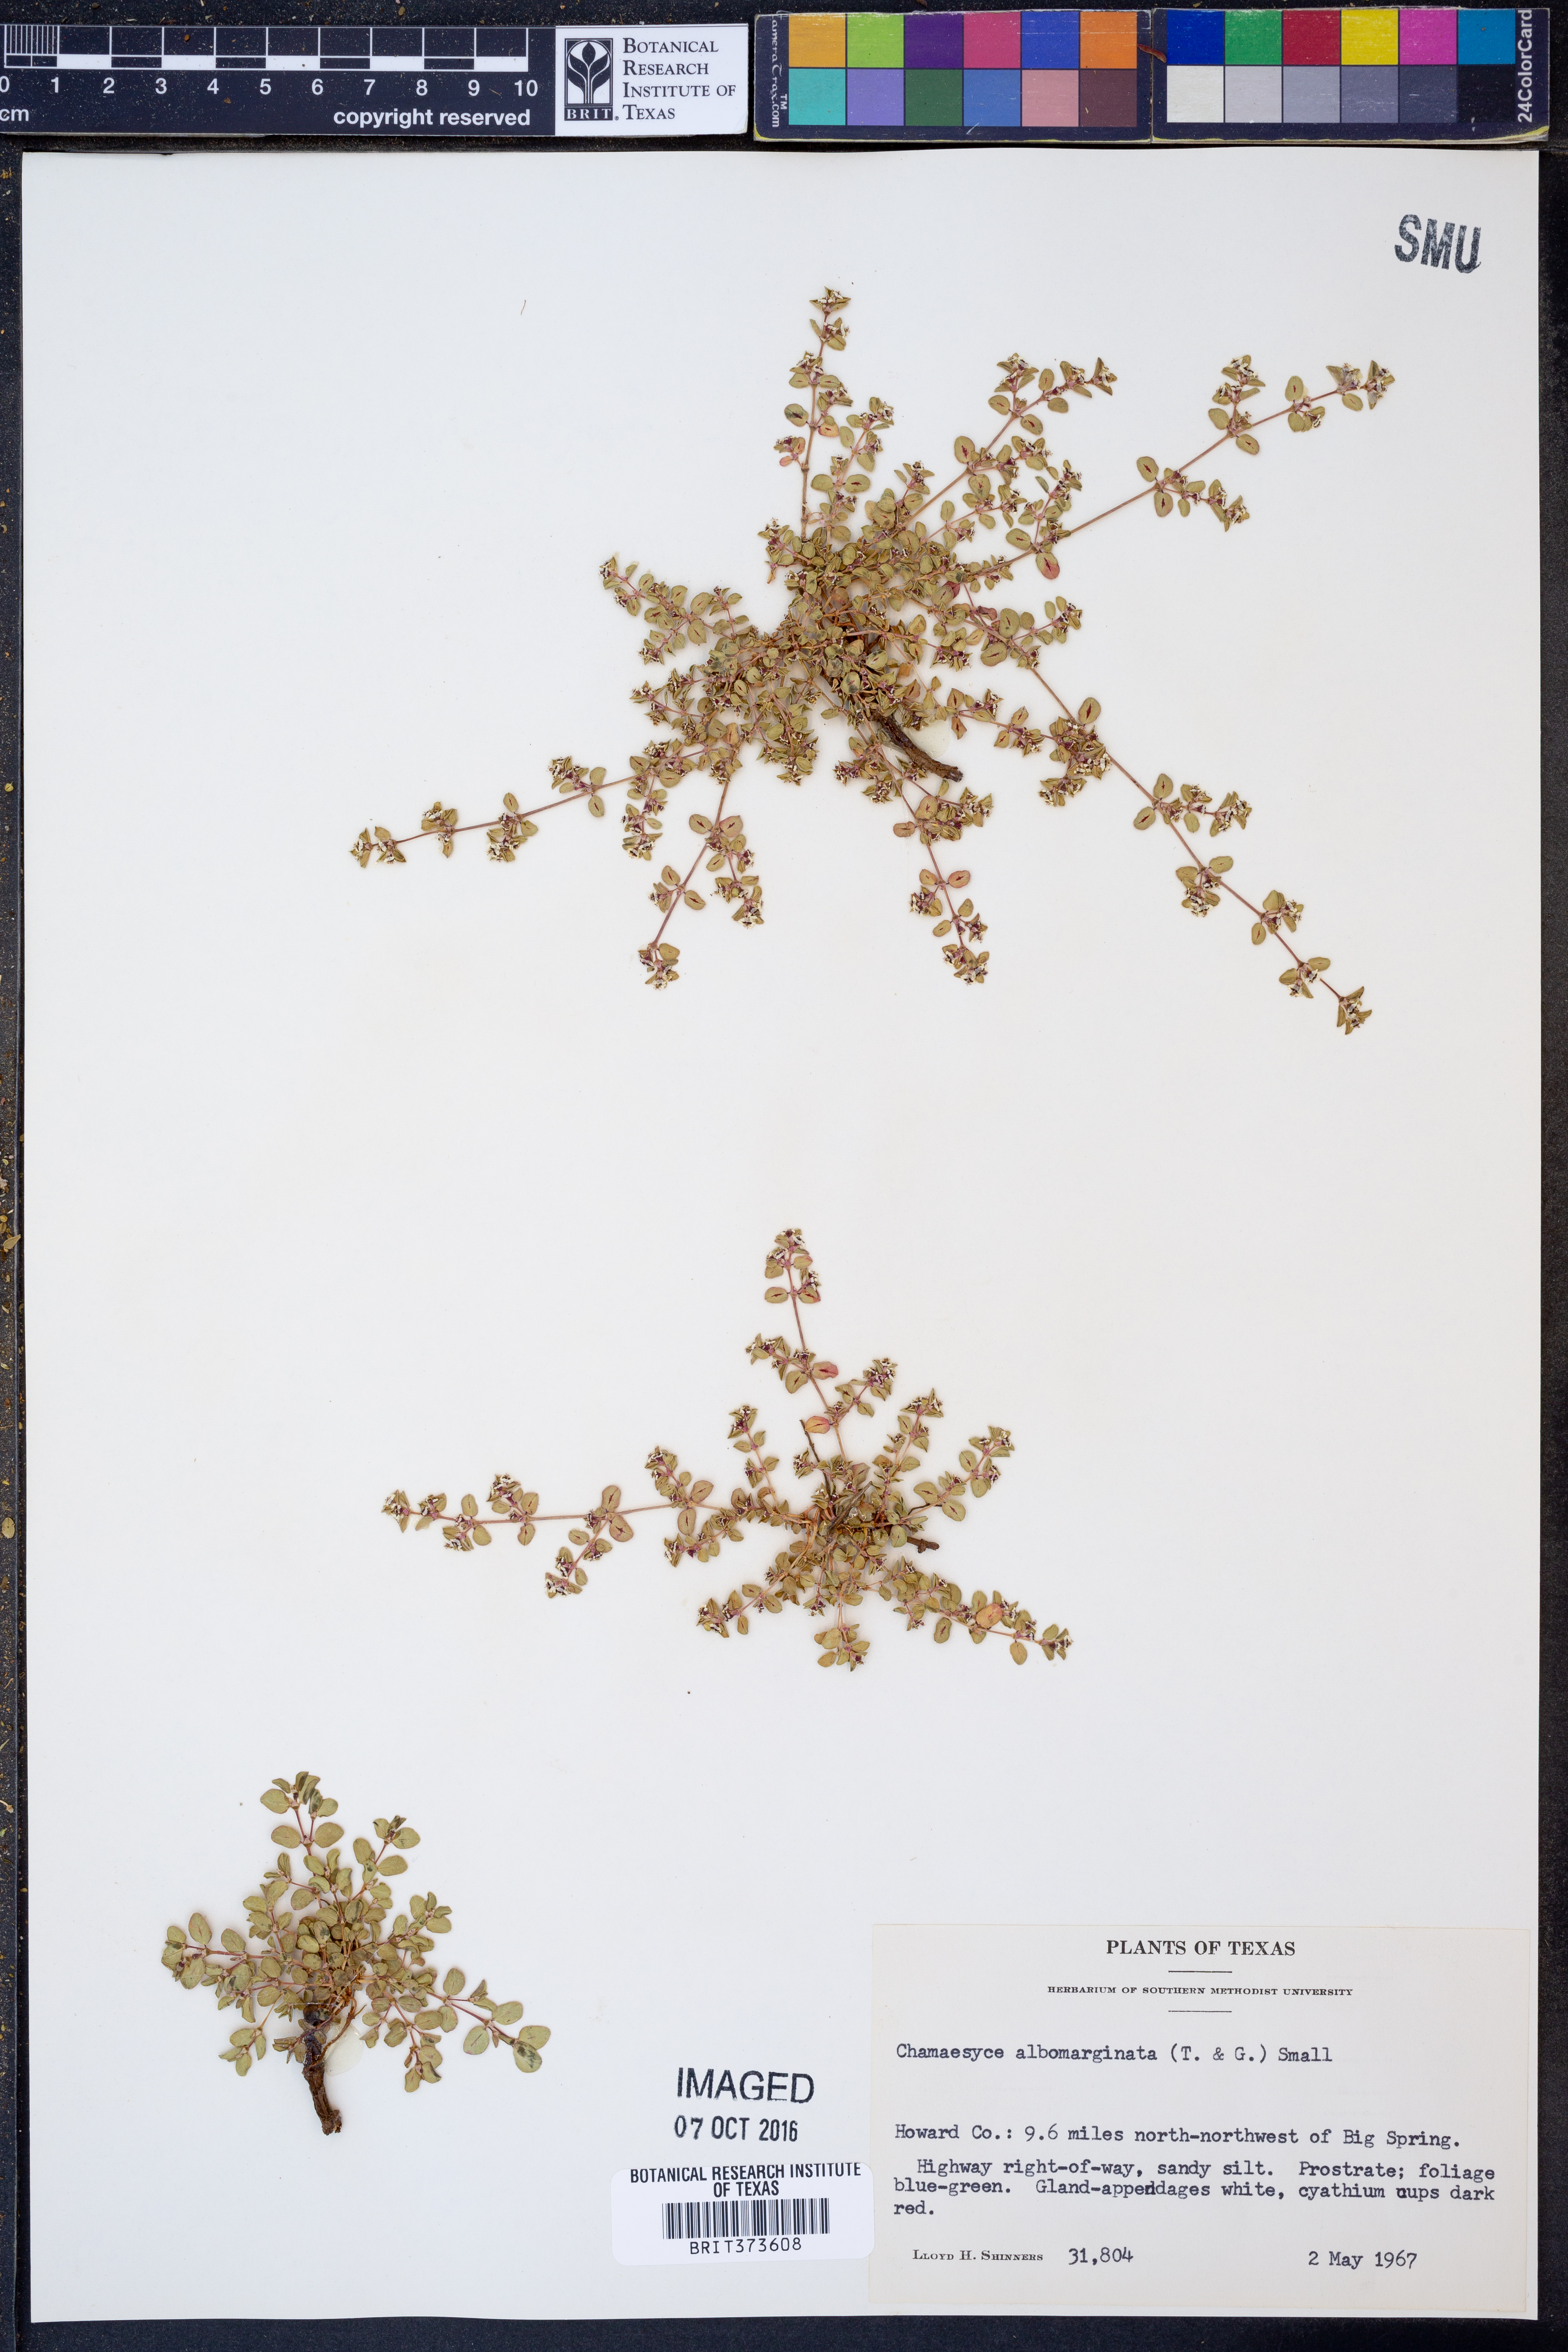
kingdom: Plantae
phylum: Tracheophyta
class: Magnoliopsida
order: Malpighiales
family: Euphorbiaceae
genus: Euphorbia
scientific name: Euphorbia albomarginata
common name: Whitemargin sandmat
